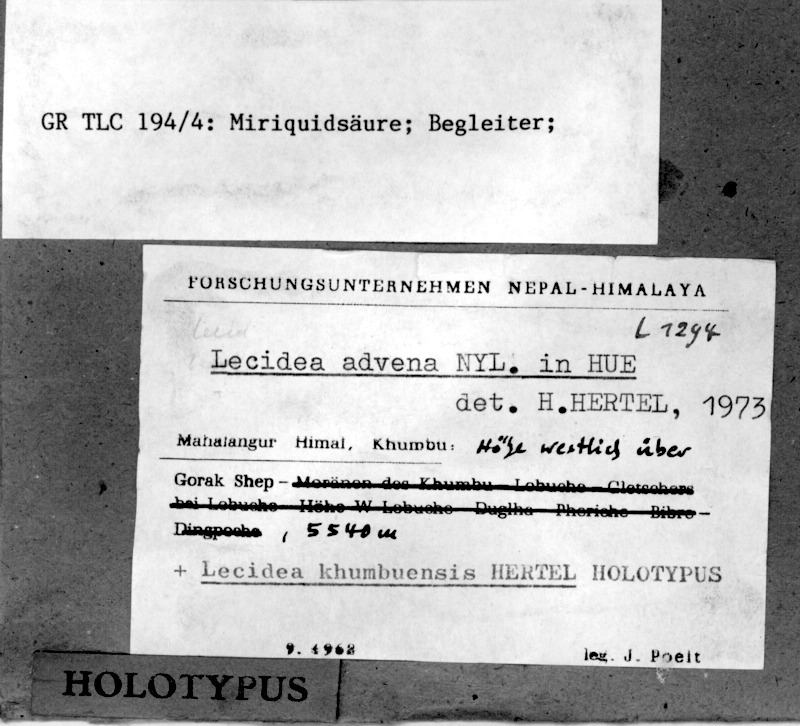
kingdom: Fungi
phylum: Ascomycota
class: Lecanoromycetes
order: Lecanorales
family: Lecanoraceae
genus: Miriquidica
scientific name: Miriquidica deusta
